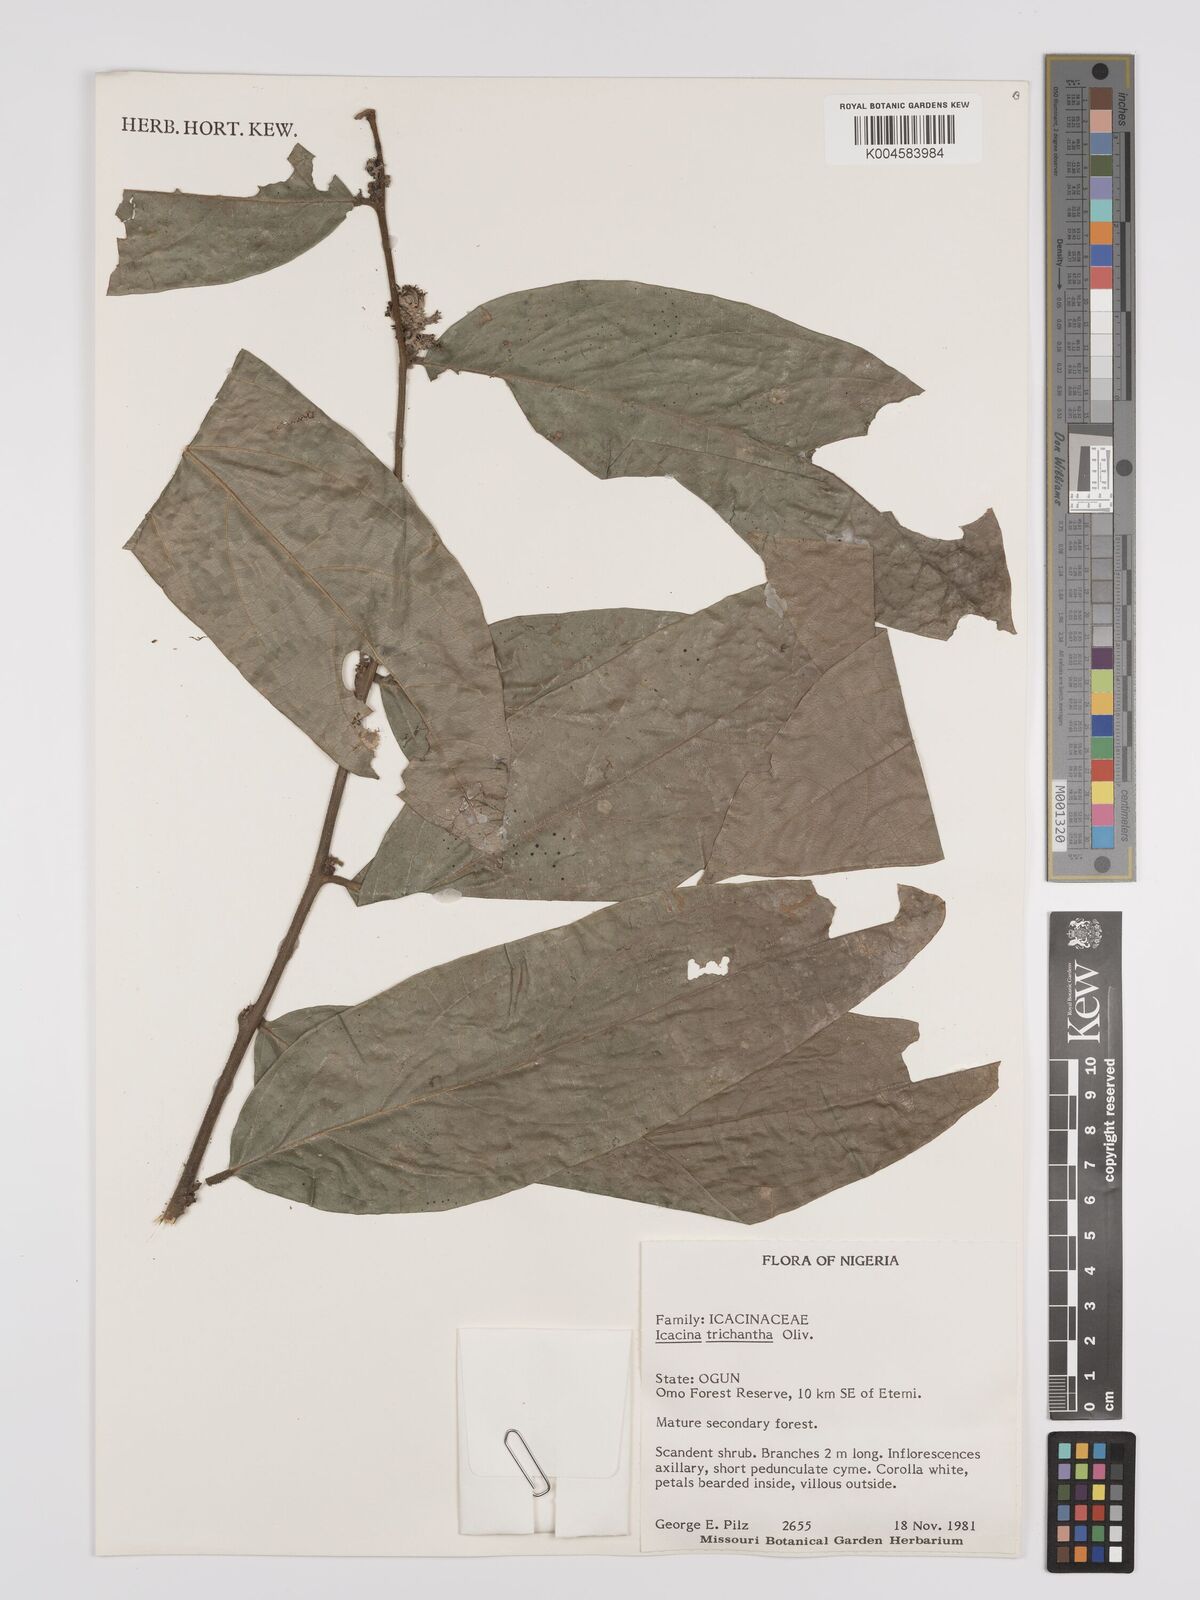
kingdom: Plantae
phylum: Tracheophyta
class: Magnoliopsida
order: Icacinales
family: Icacinaceae
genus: Icacina
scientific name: Icacina trichantha
